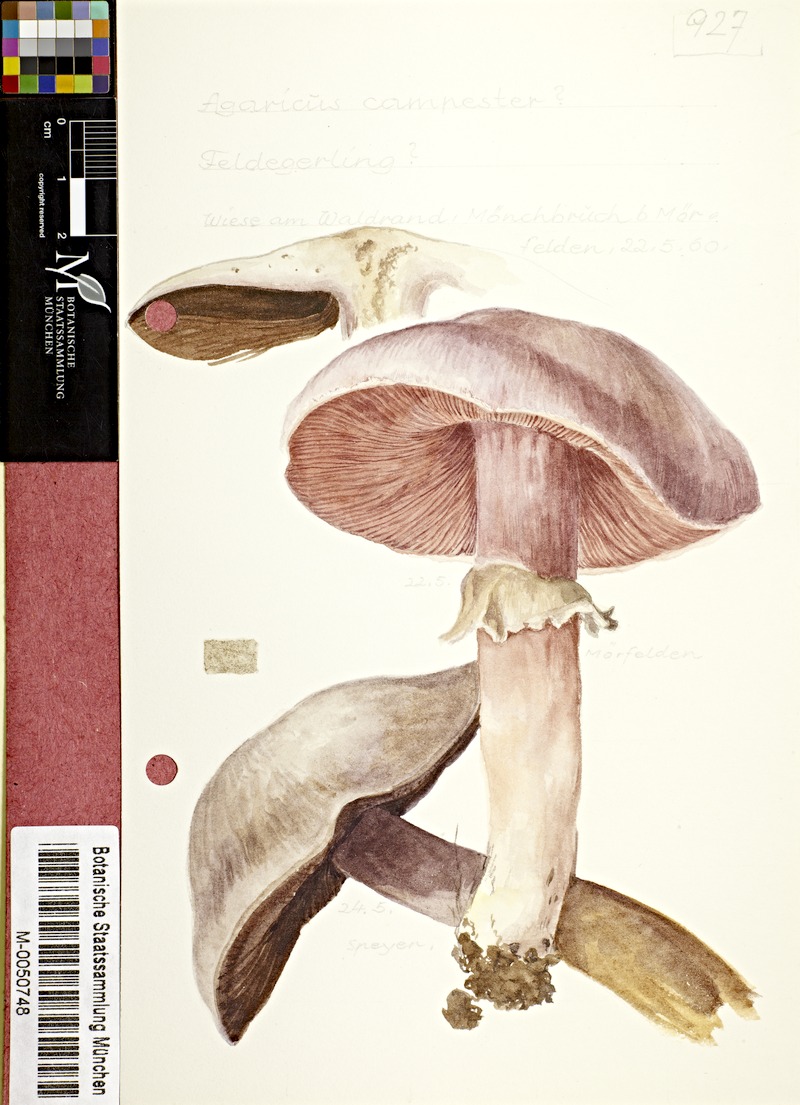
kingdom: Fungi
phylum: Basidiomycota
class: Agaricomycetes
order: Agaricales
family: Agaricaceae
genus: Agaricus
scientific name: Agaricus campestris
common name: Field mushroom
